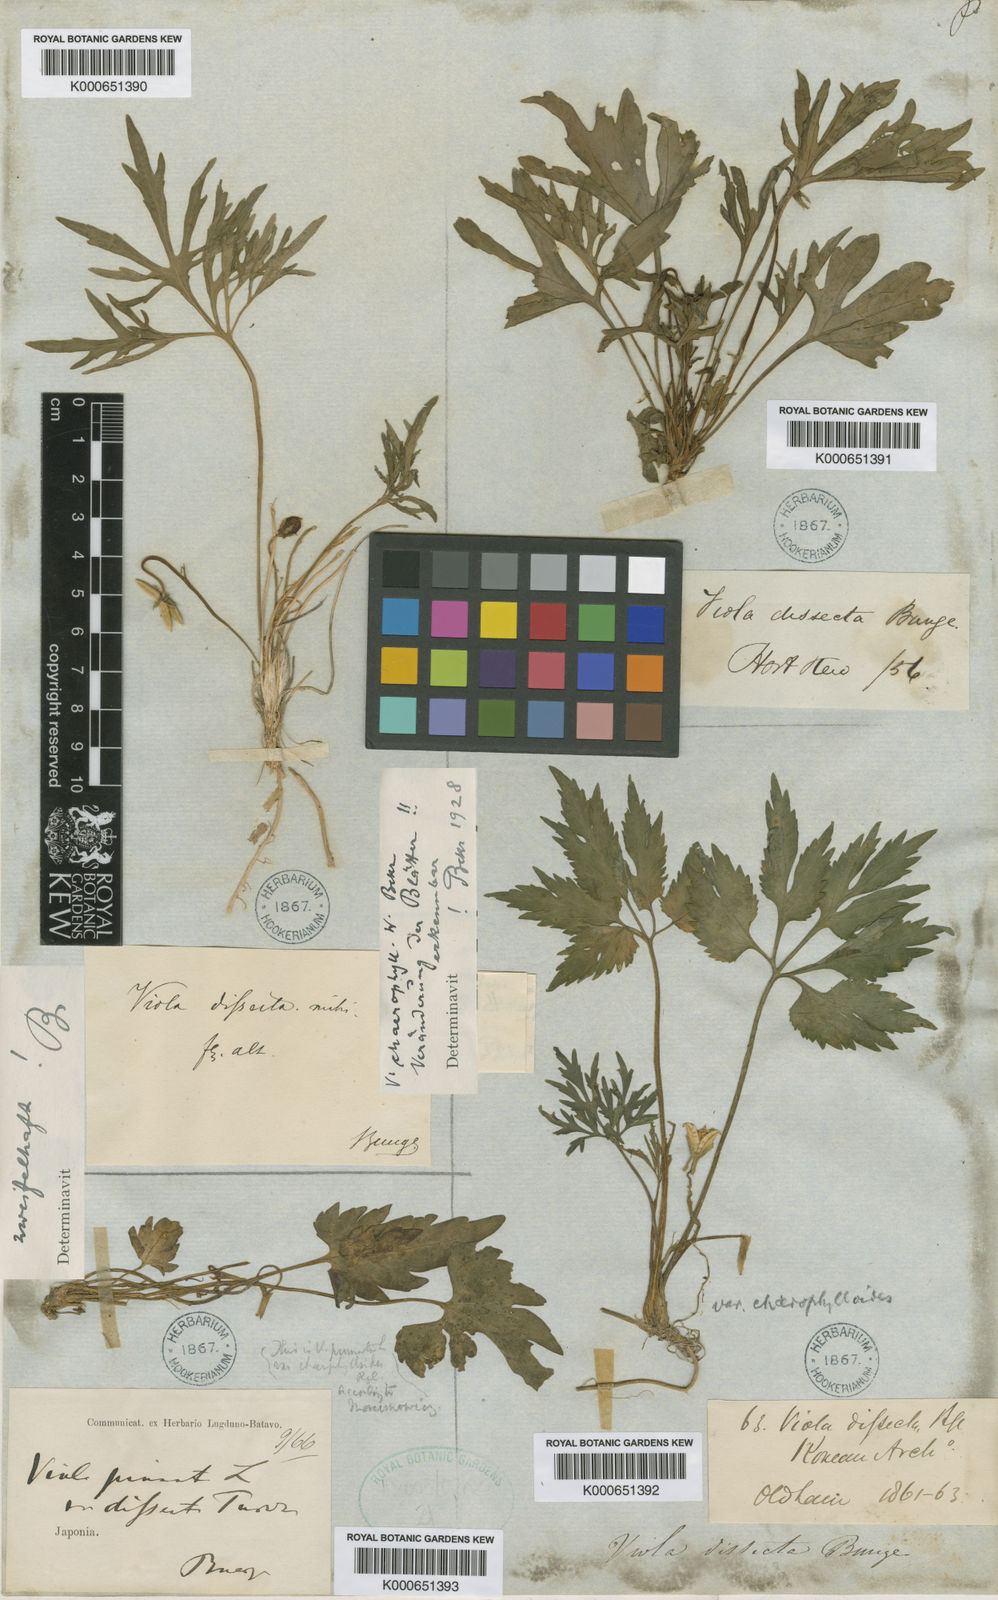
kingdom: Plantae
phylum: Tracheophyta
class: Magnoliopsida
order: Malpighiales
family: Violaceae
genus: Viola
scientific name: Viola
